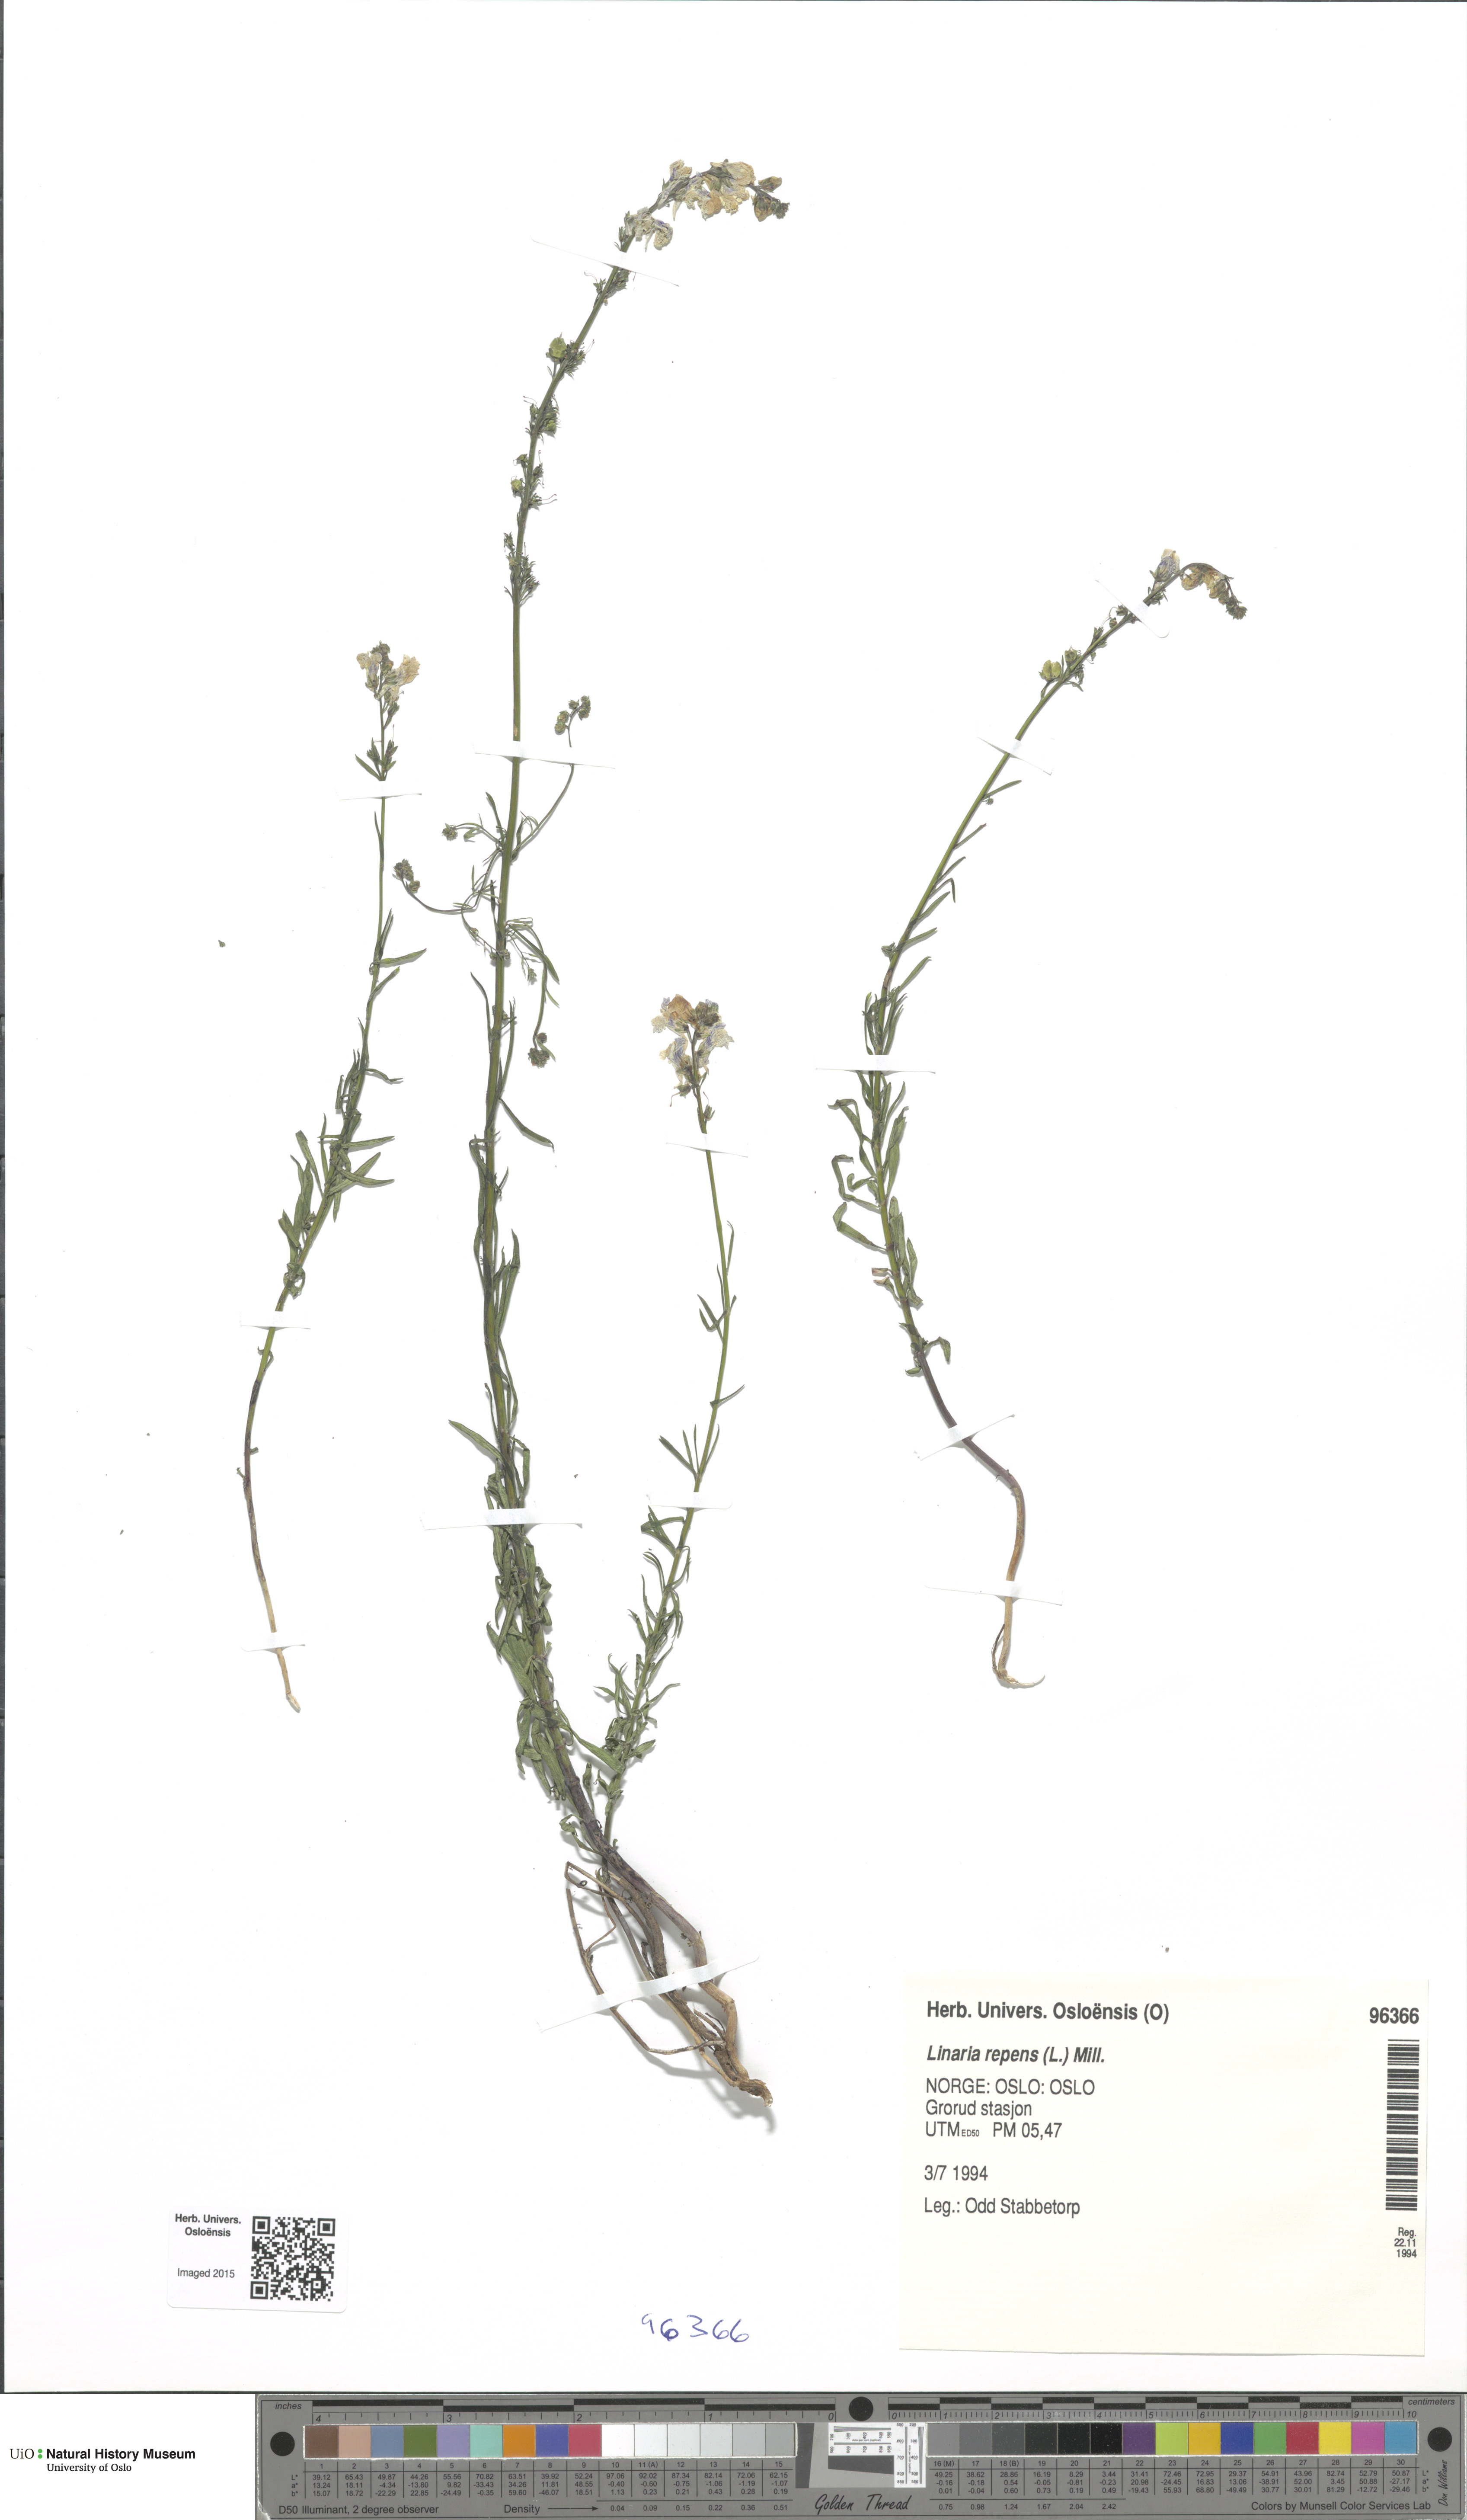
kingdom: Plantae
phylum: Tracheophyta
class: Magnoliopsida
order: Lamiales
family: Plantaginaceae
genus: Linaria
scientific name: Linaria repens
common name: Pale toadflax
